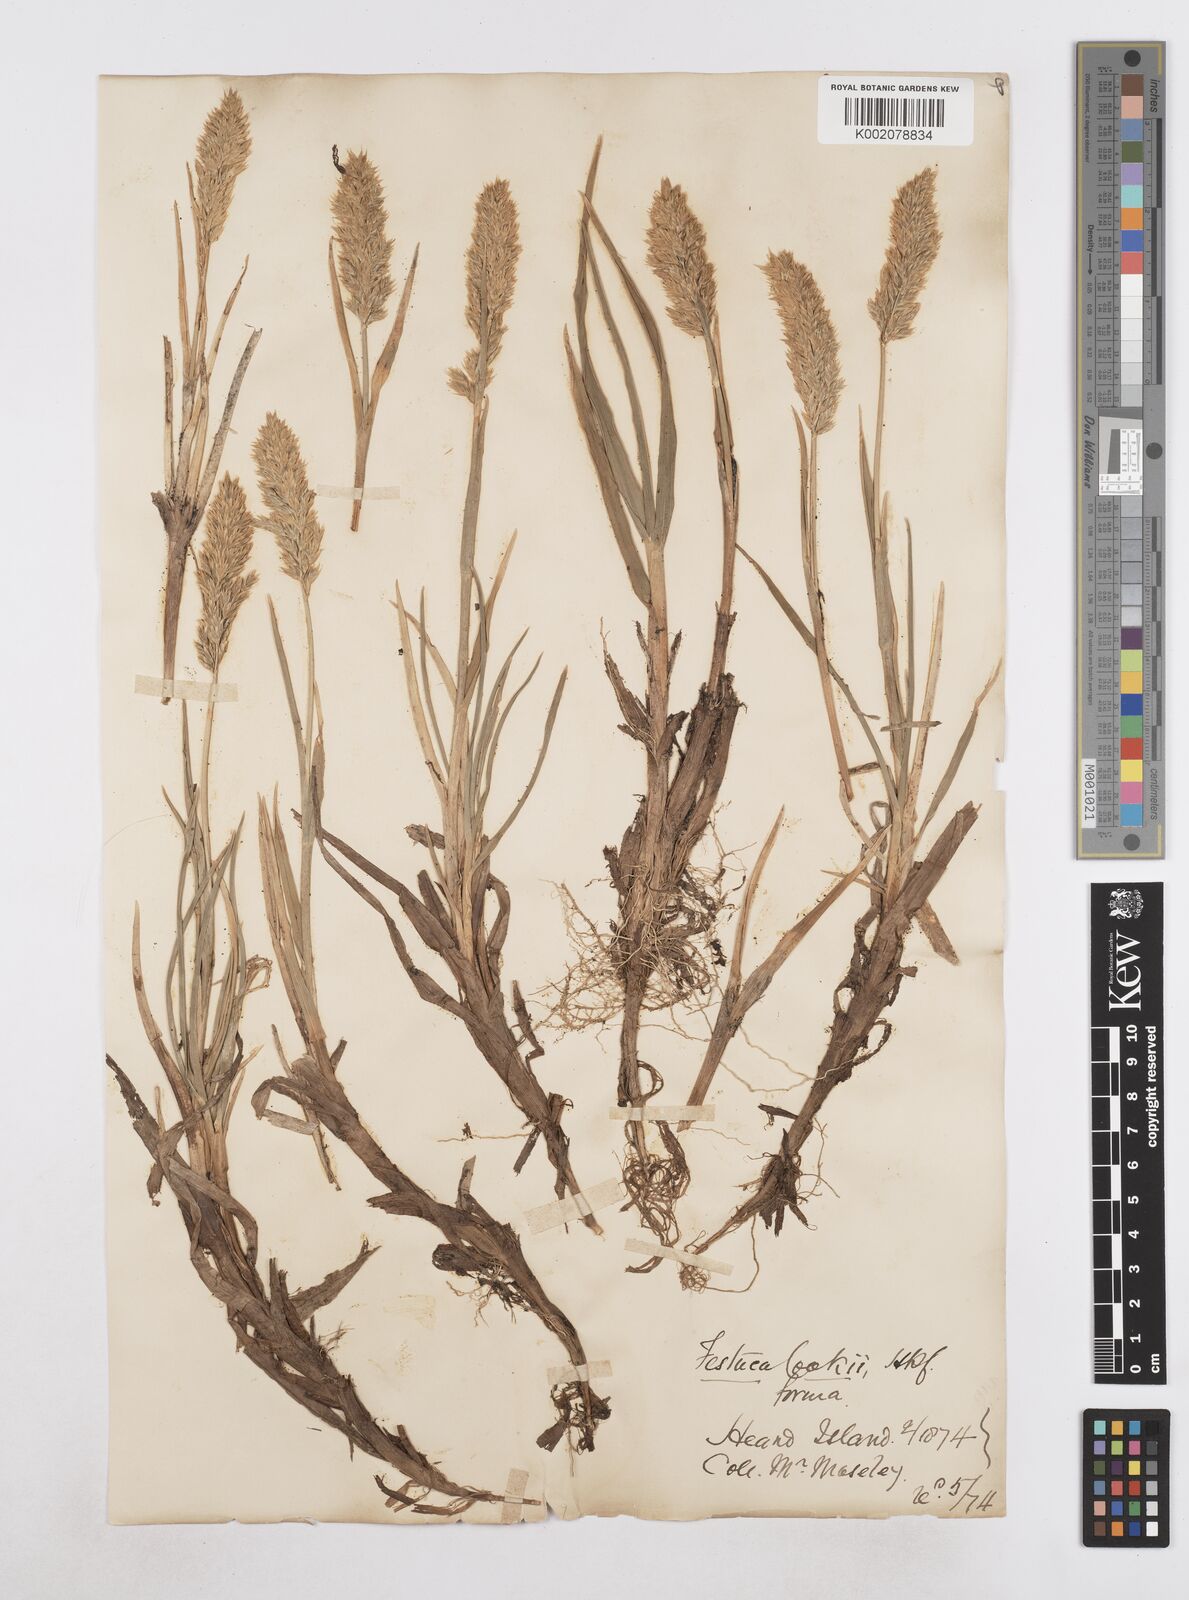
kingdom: Plantae
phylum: Tracheophyta
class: Liliopsida
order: Poales
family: Poaceae
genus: Poa
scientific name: Poa cookii
